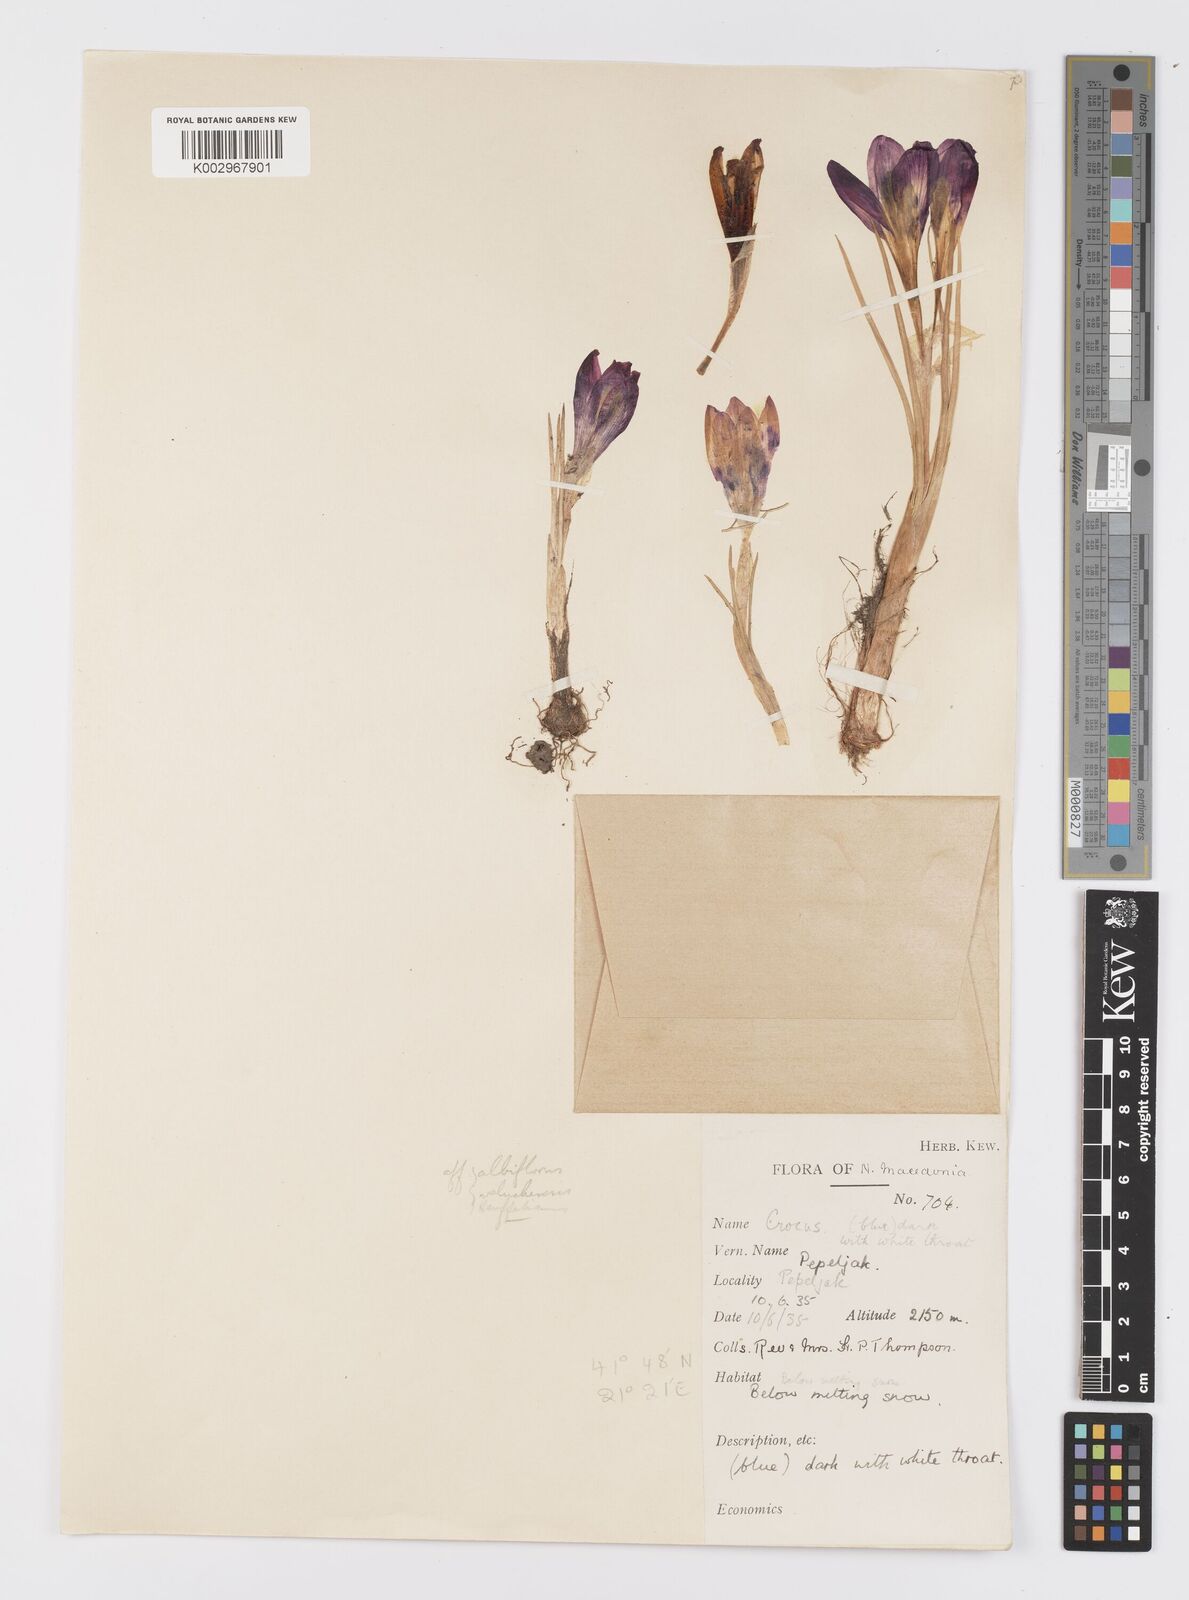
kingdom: Plantae
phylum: Tracheophyta
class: Liliopsida
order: Asparagales
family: Iridaceae
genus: Crocus
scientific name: Crocus pelistericus
